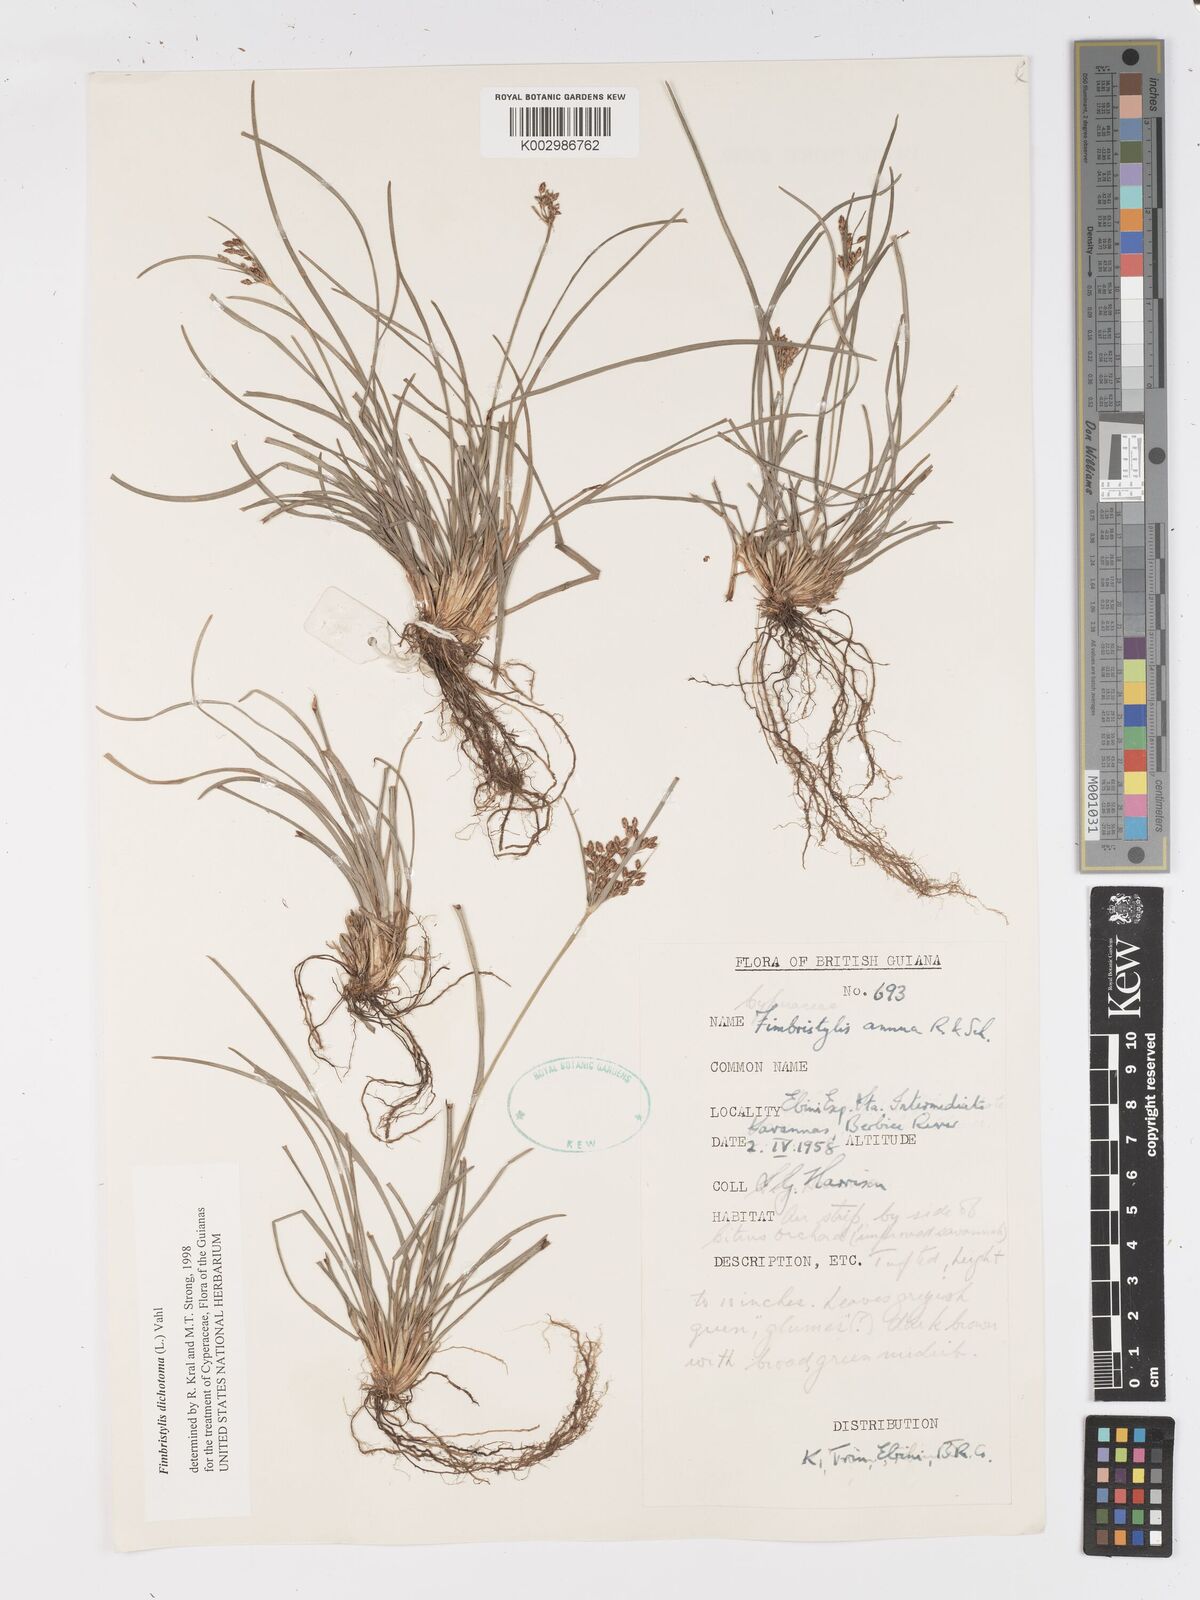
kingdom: Plantae
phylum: Tracheophyta
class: Liliopsida
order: Poales
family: Cyperaceae
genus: Fimbristylis
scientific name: Fimbristylis dichotoma
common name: Forked fimbry
